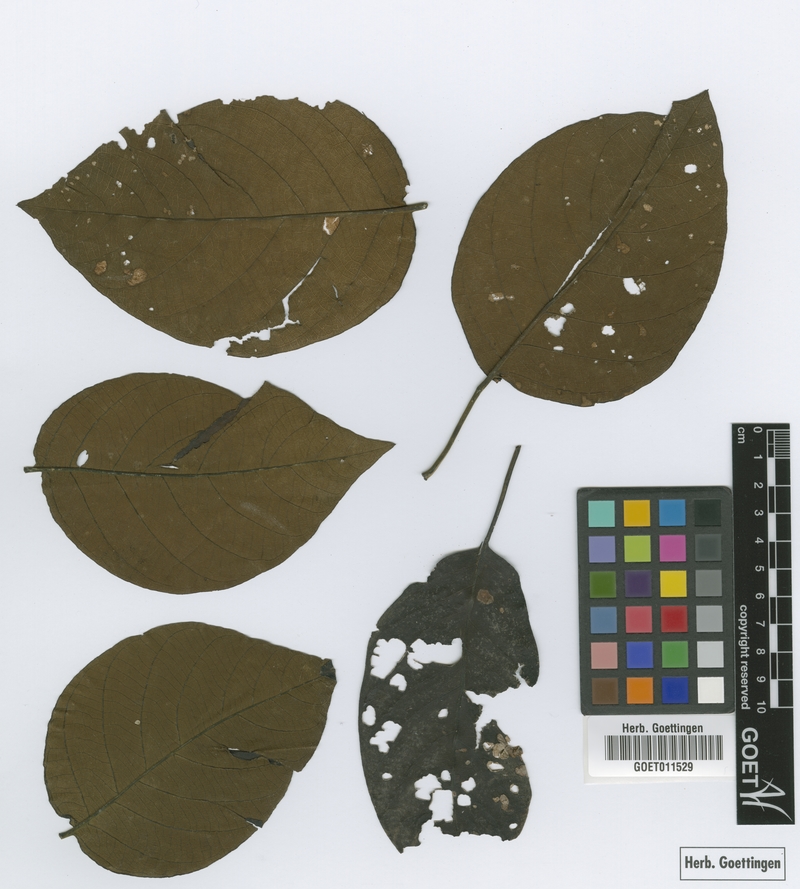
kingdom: Plantae
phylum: Tracheophyta
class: Magnoliopsida
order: Lamiales
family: Lamiaceae
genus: Petitia
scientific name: Petitia domingensis
